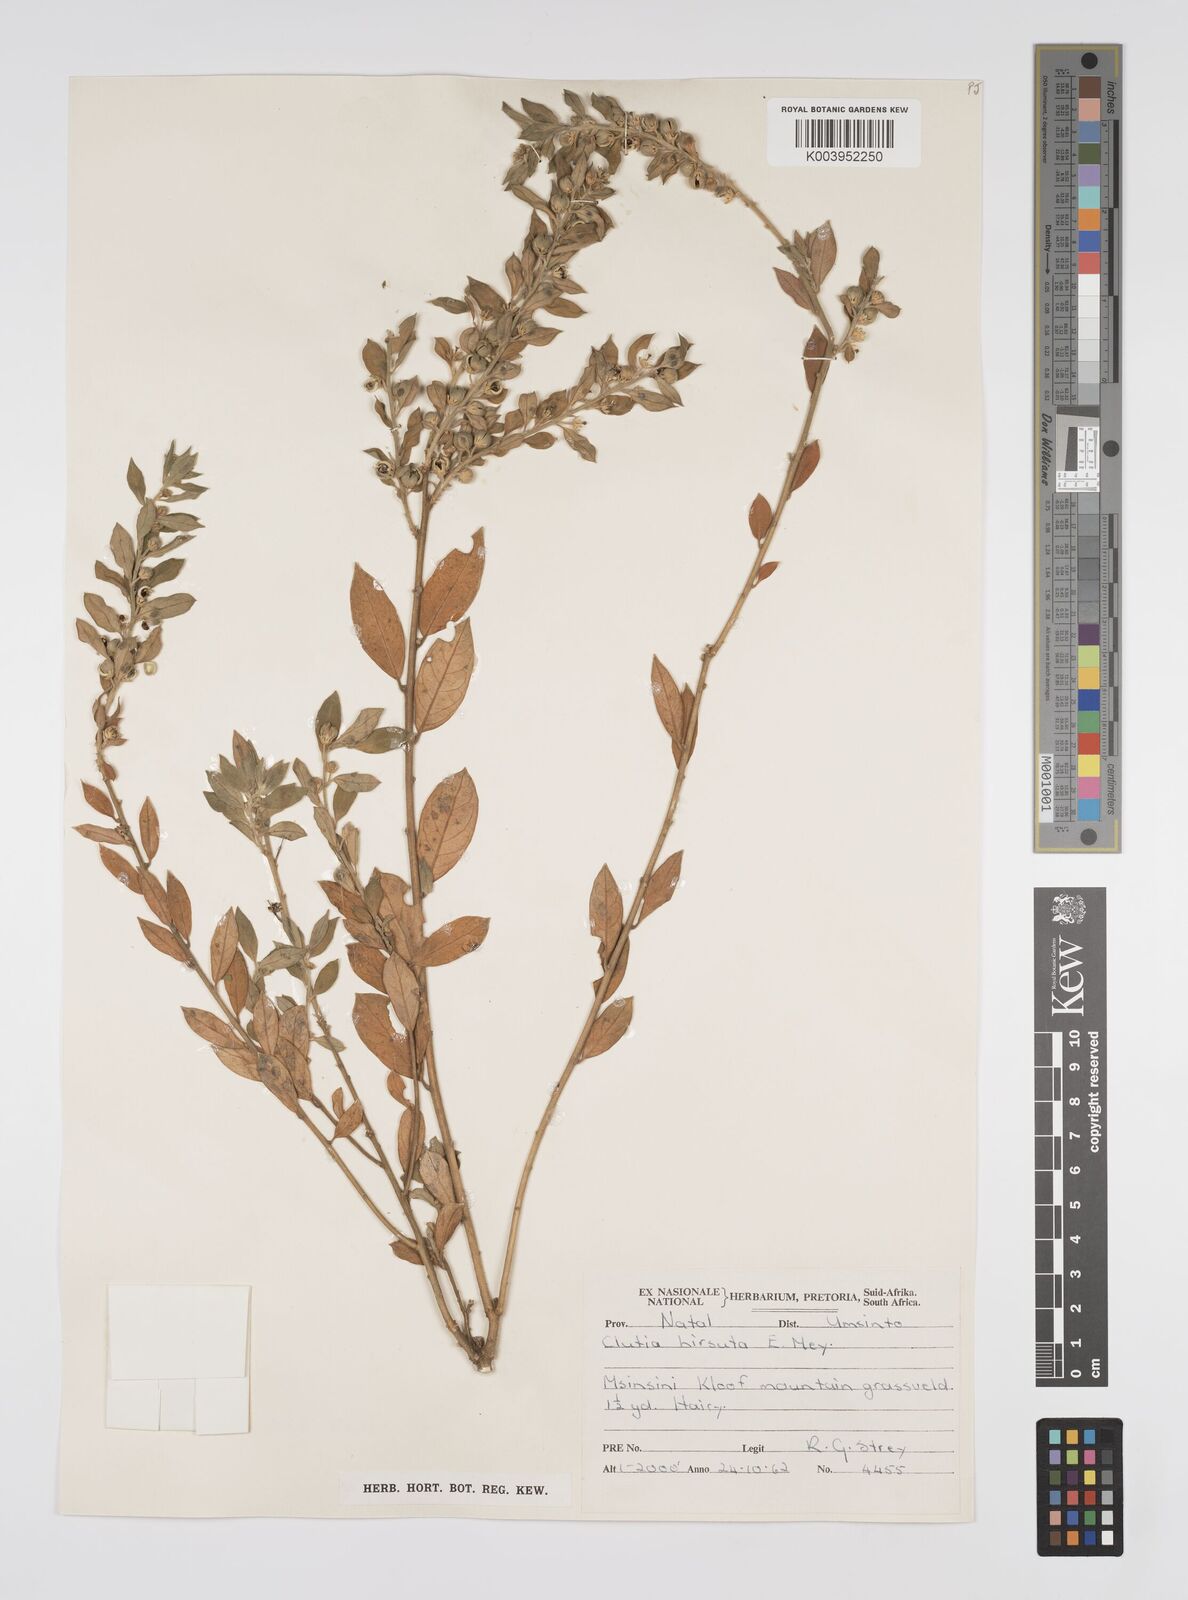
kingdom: Plantae
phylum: Tracheophyta
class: Magnoliopsida
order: Malpighiales
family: Peraceae
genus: Clutia
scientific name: Clutia affinis
